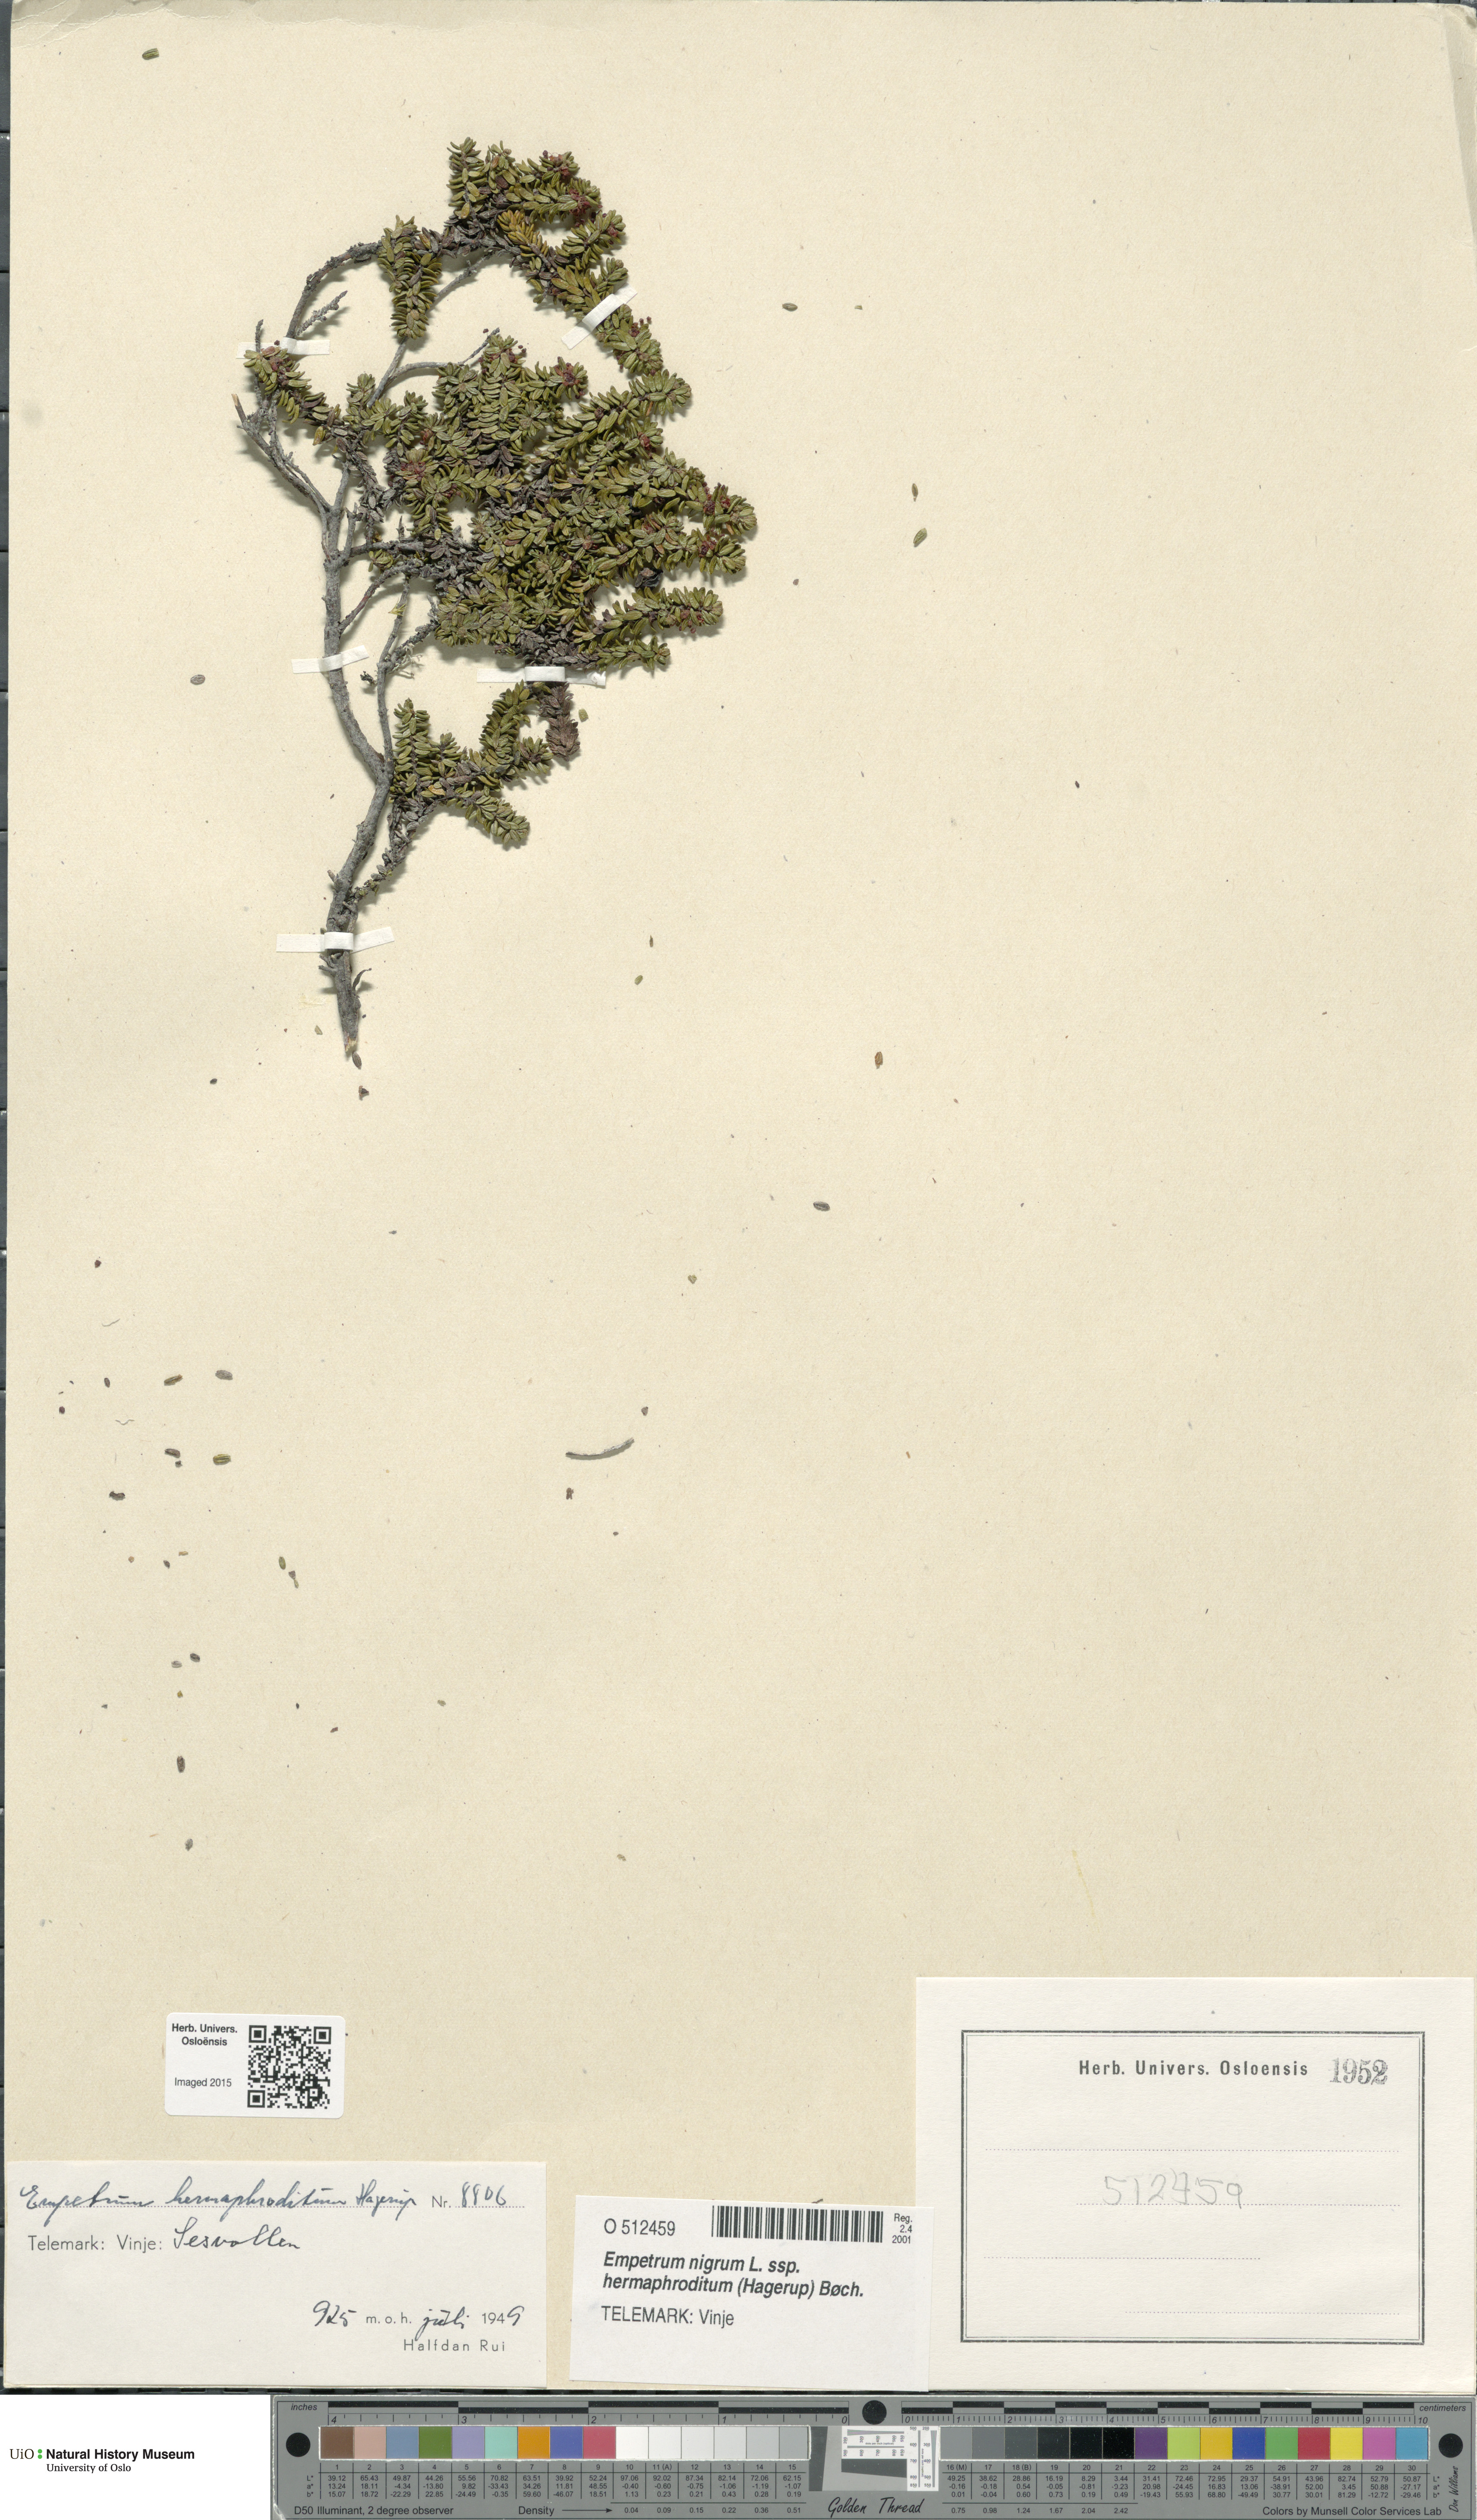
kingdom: Plantae
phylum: Tracheophyta
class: Magnoliopsida
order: Ericales
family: Ericaceae
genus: Empetrum
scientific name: Empetrum hermaphroditum
